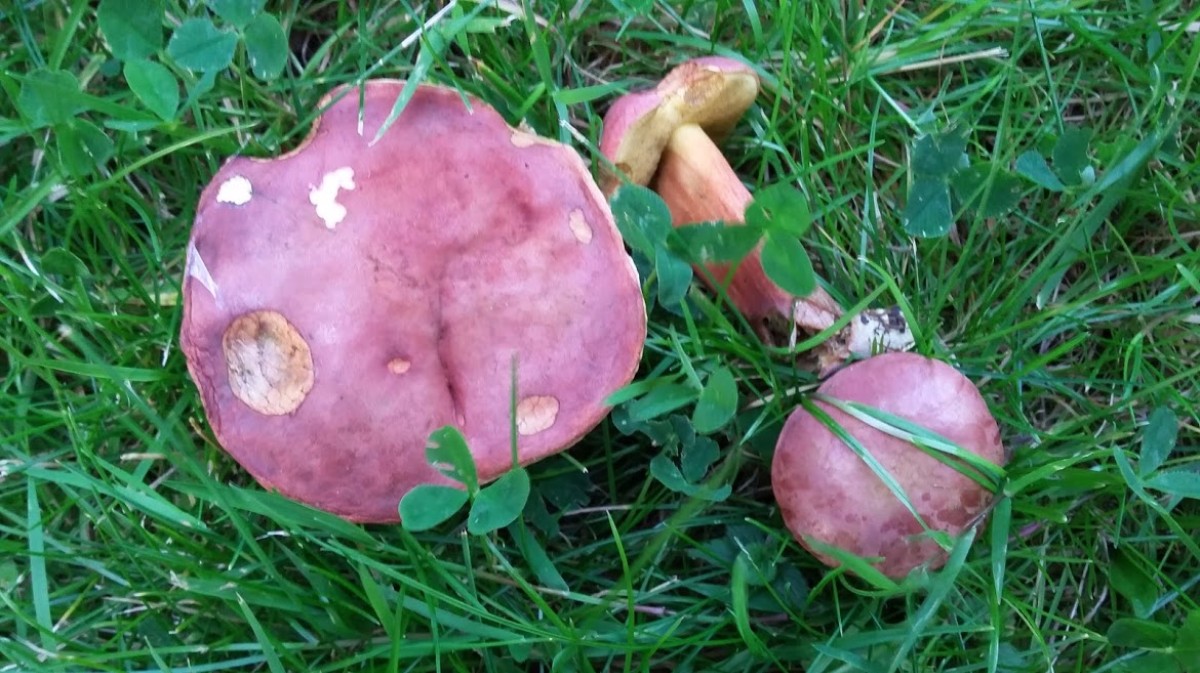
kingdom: Fungi
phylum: Basidiomycota
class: Agaricomycetes
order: Boletales
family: Boletaceae
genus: Hortiboletus
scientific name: Hortiboletus rubellus
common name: blodrød rørhat
